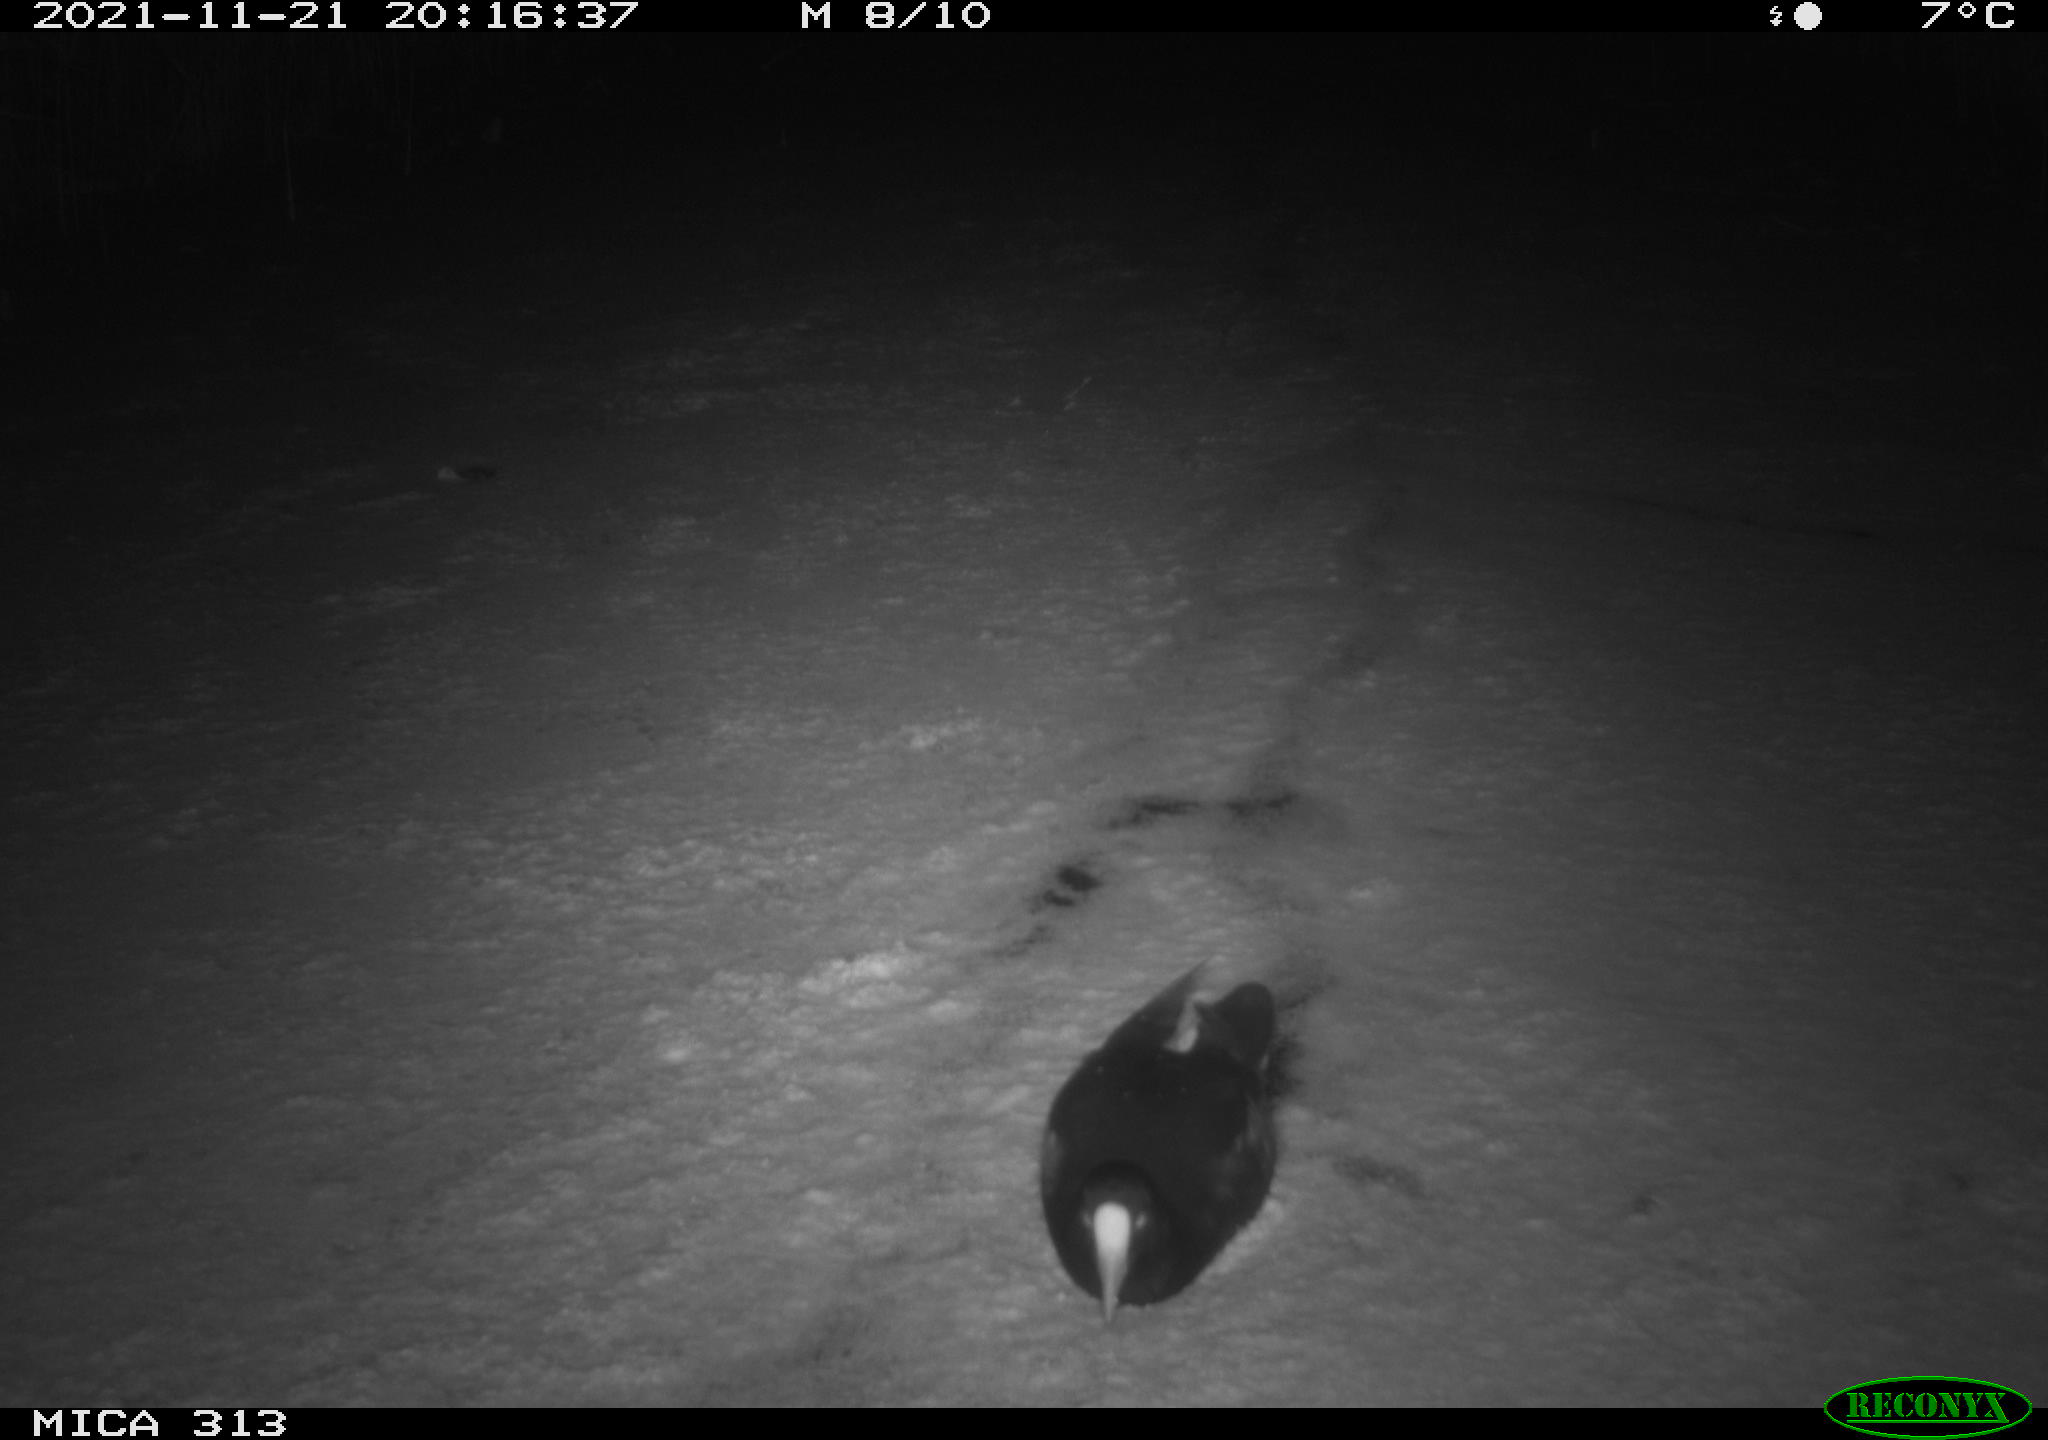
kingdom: Animalia
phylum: Chordata
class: Aves
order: Gruiformes
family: Rallidae
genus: Gallinula
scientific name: Gallinula chloropus
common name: Common moorhen
